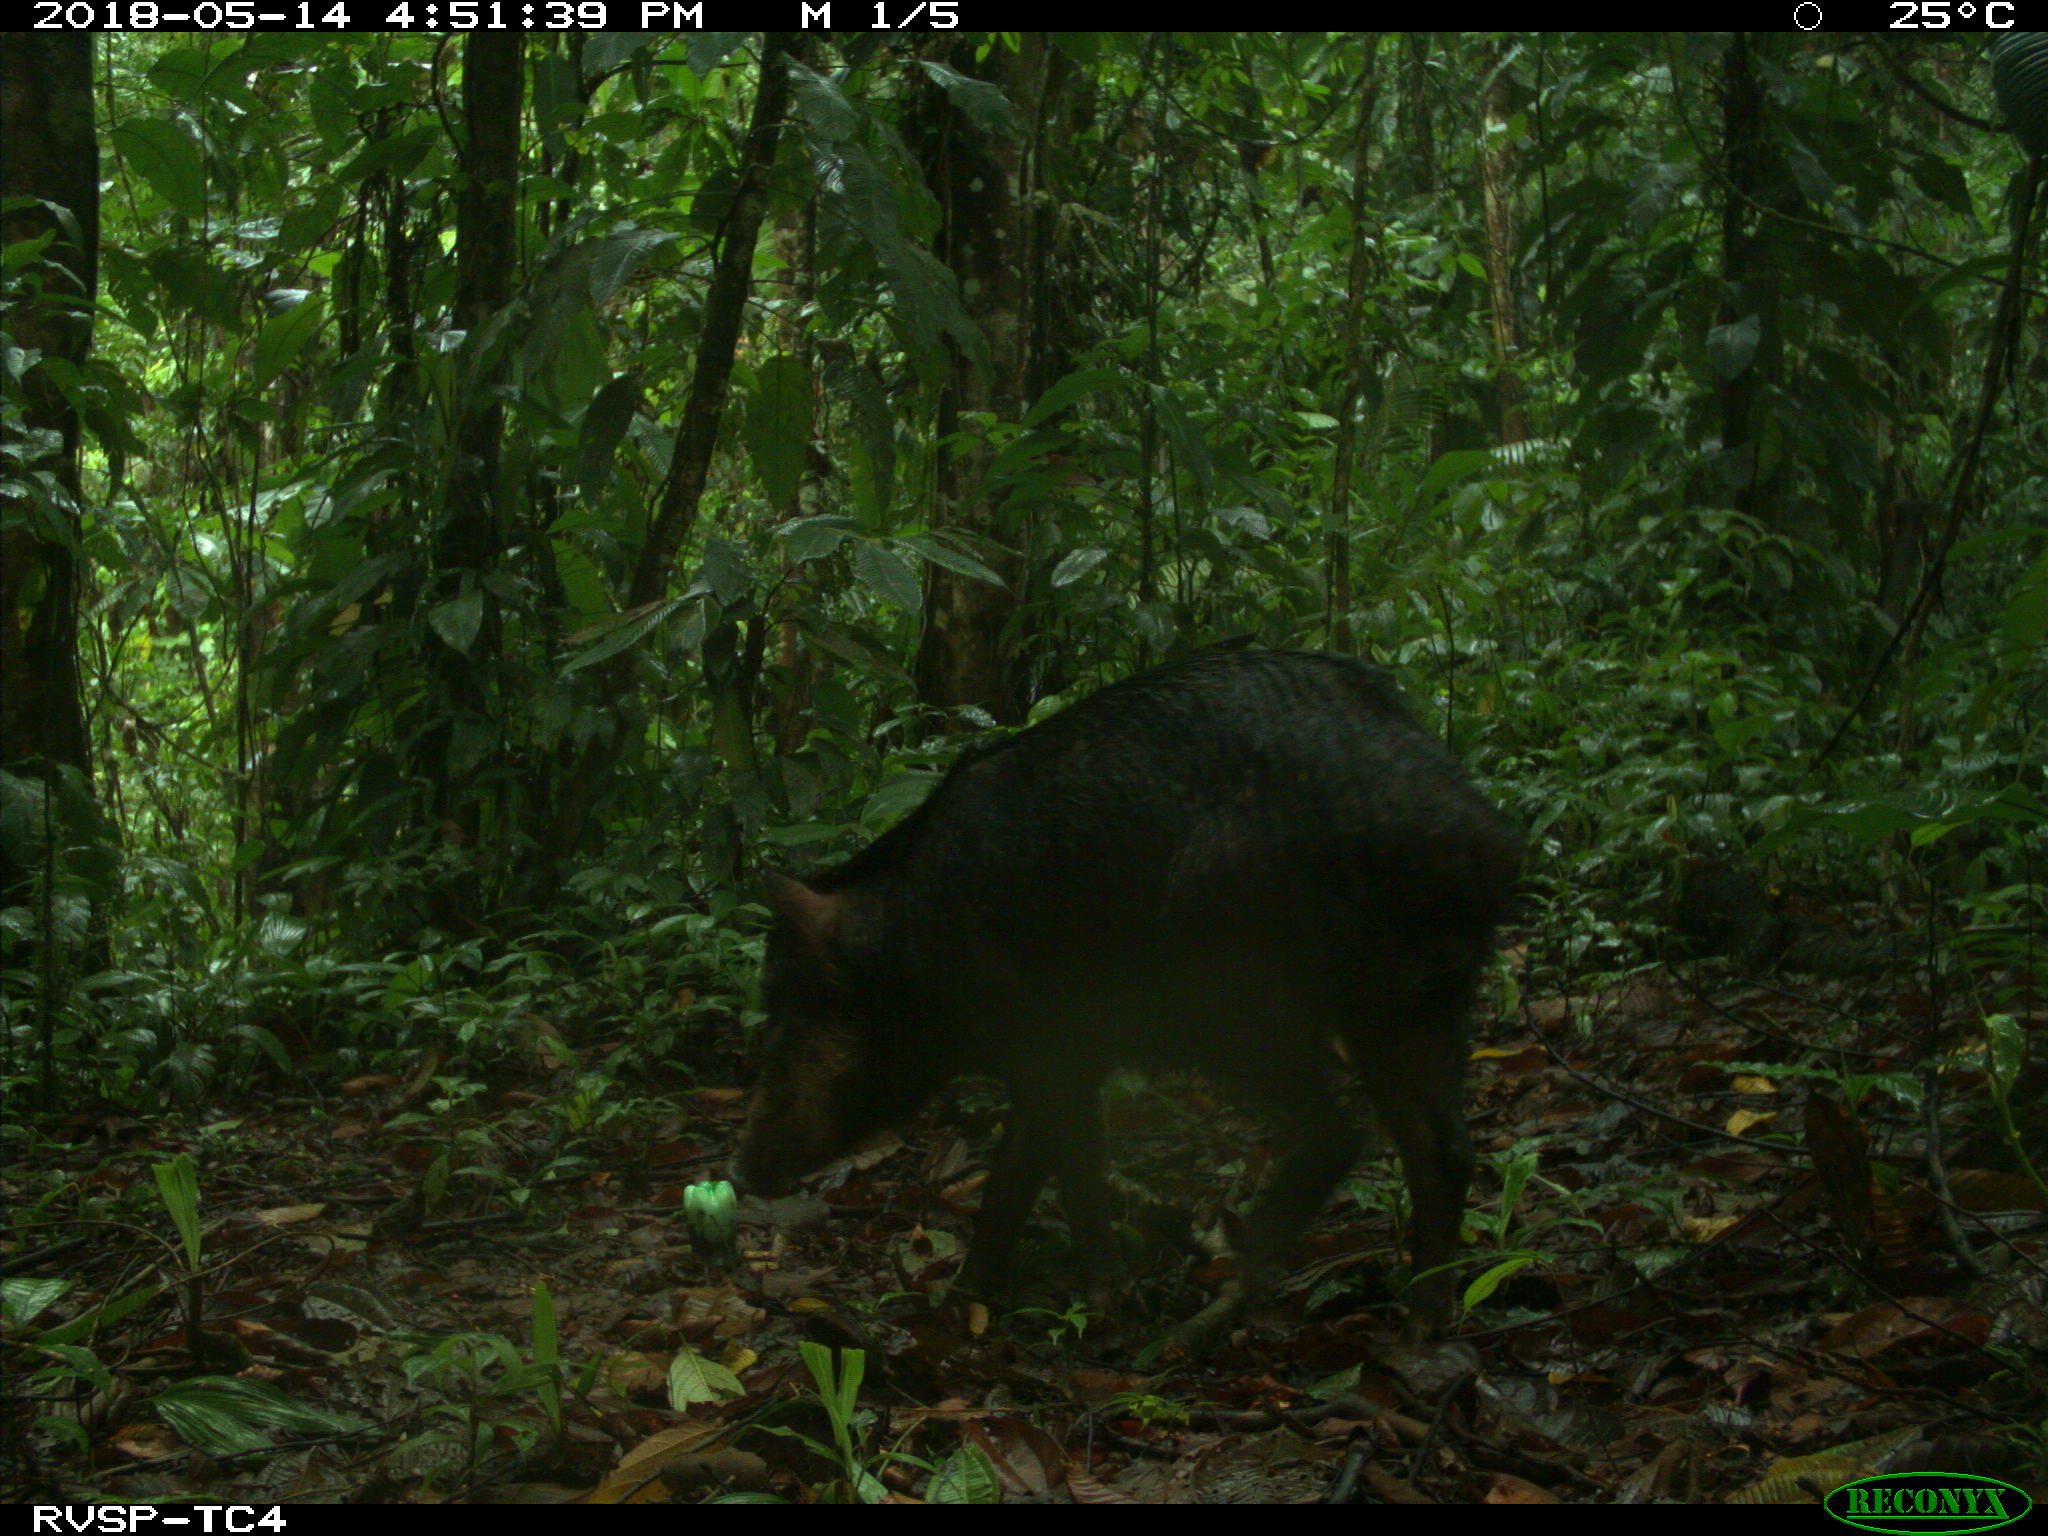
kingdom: Animalia
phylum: Chordata
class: Mammalia
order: Artiodactyla
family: Tayassuidae
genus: Tayassu
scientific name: Tayassu pecari
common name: White-lipped peccary
